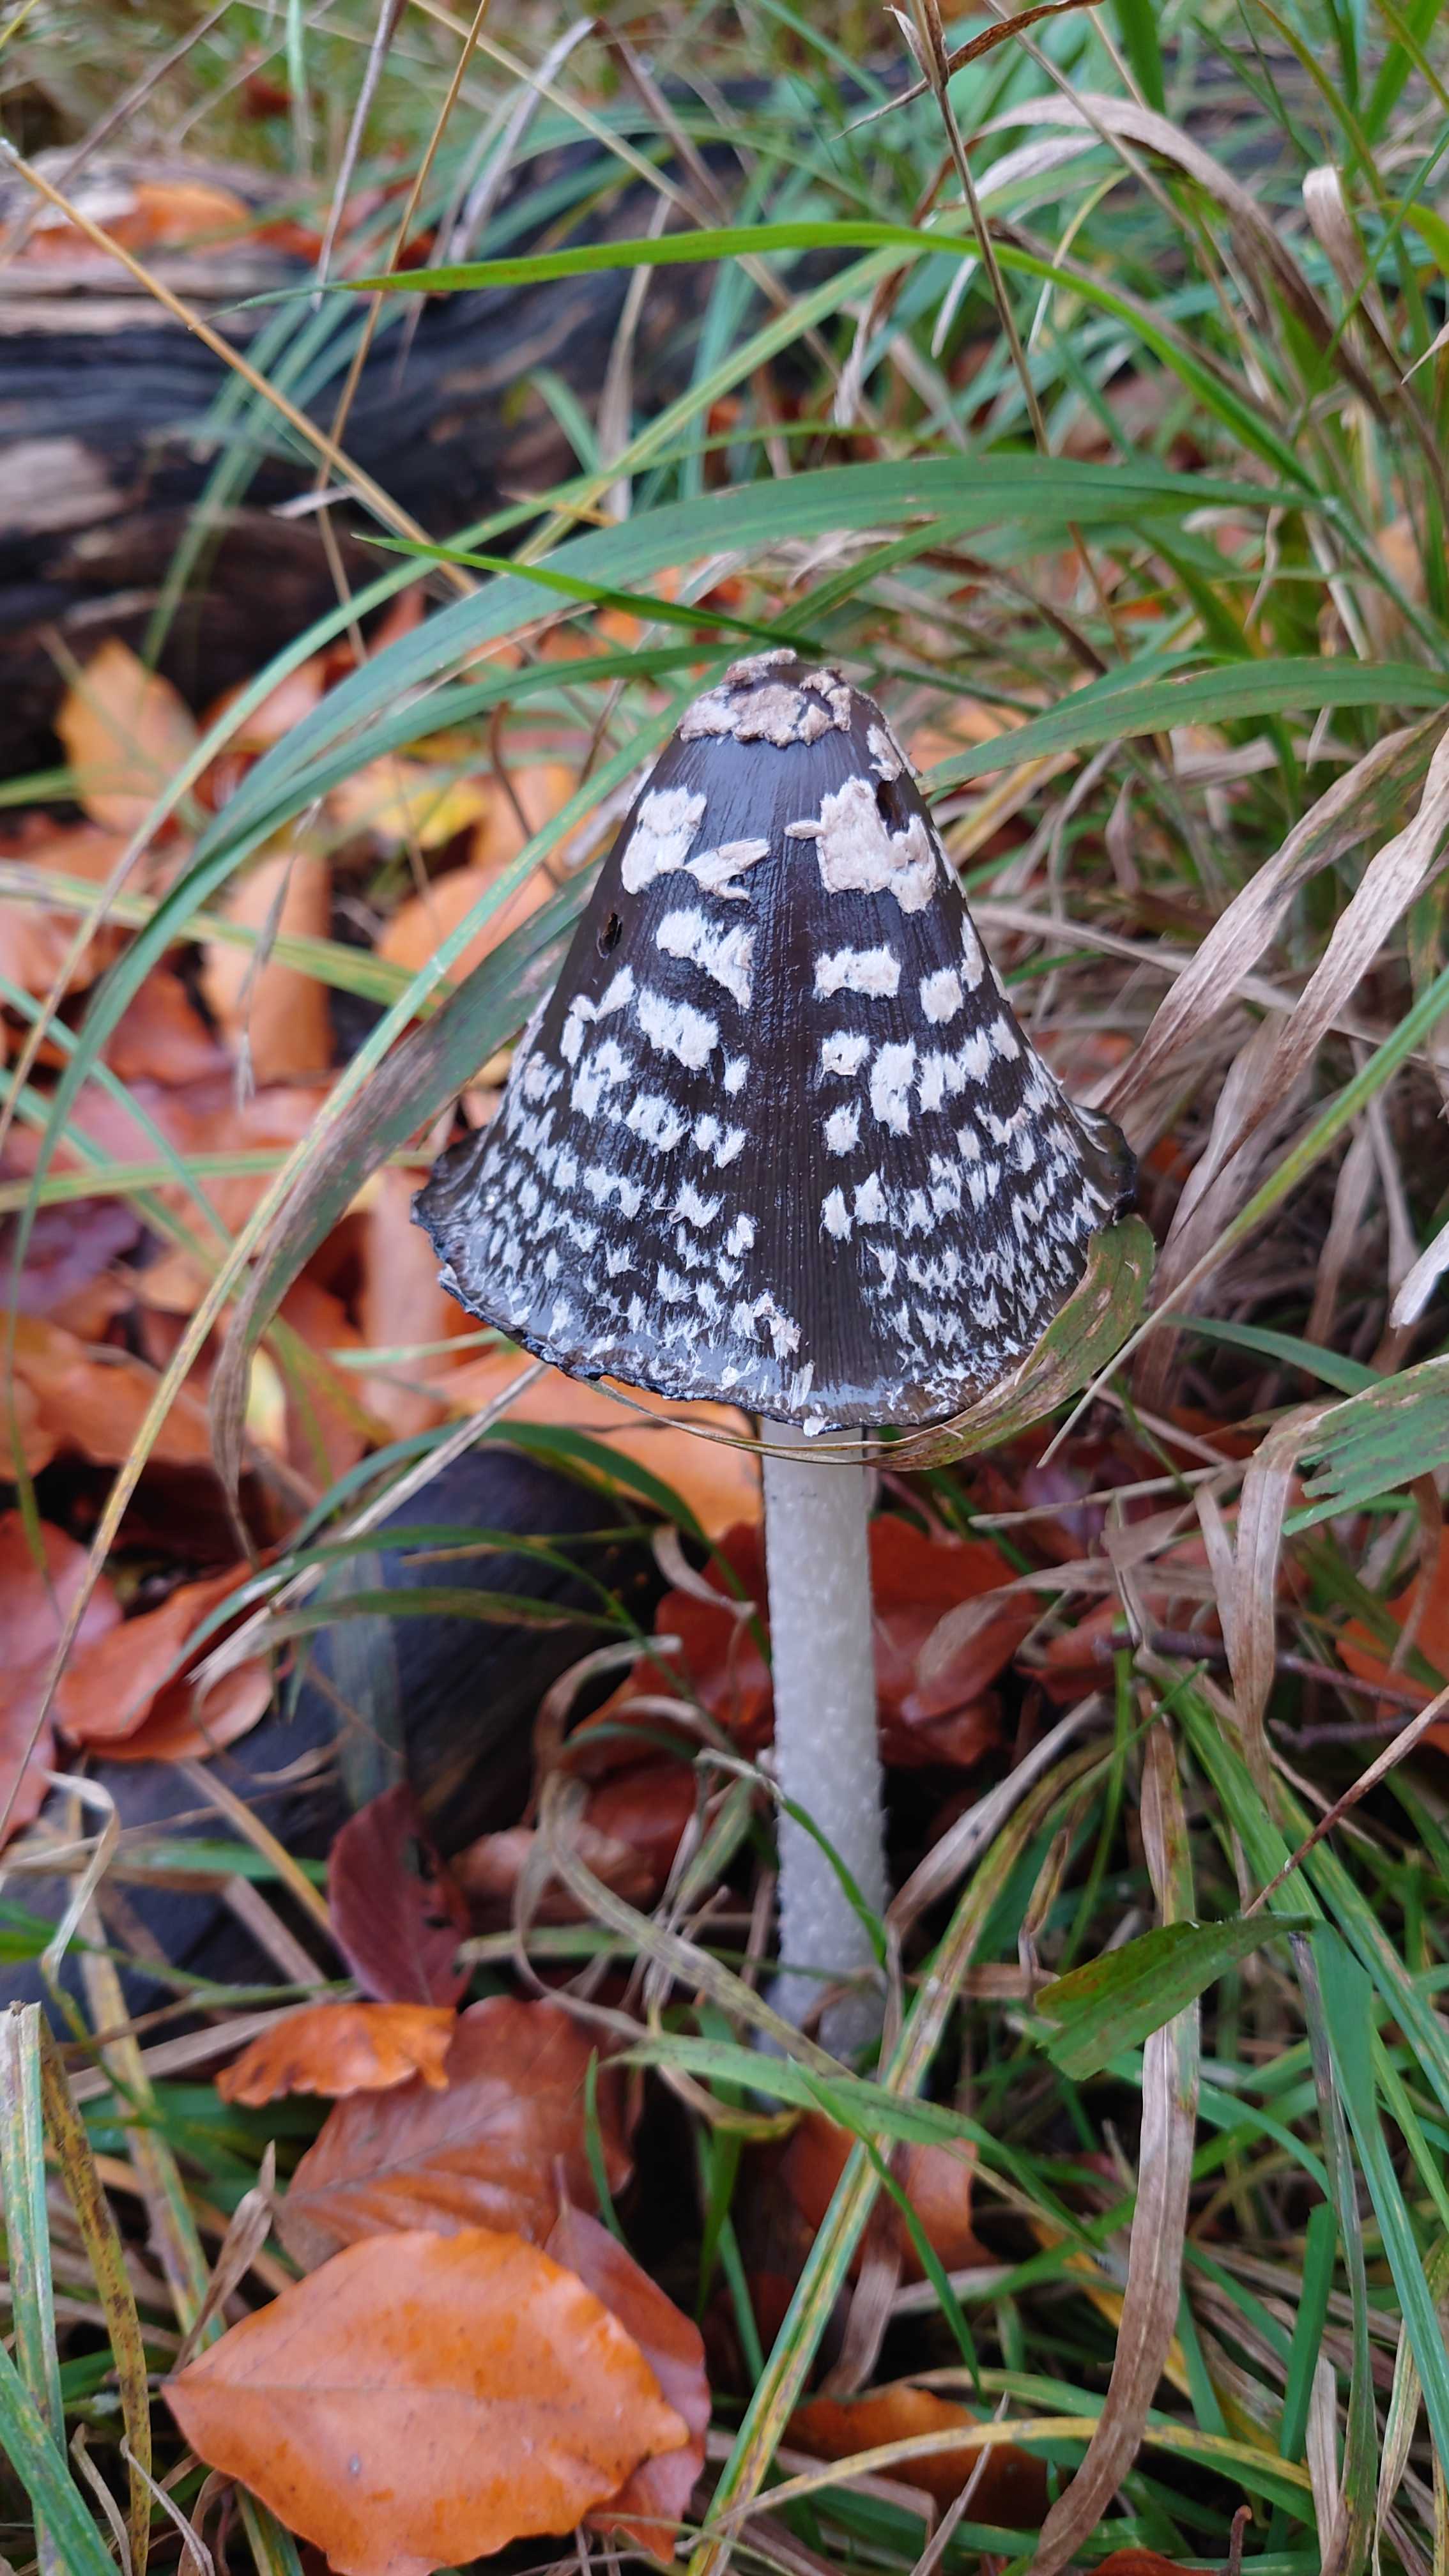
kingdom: Fungi
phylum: Basidiomycota
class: Agaricomycetes
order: Agaricales
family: Psathyrellaceae
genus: Coprinopsis
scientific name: Coprinopsis picacea
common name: skade-blækhat
